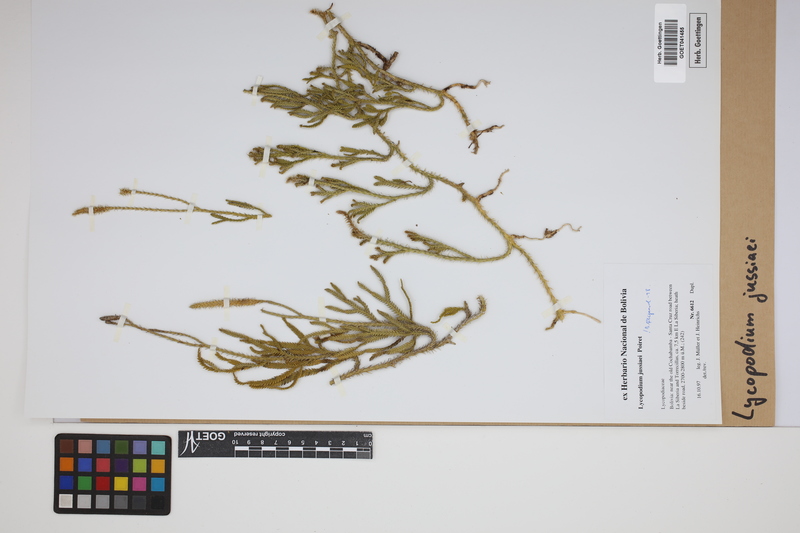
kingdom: Plantae
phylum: Tracheophyta
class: Lycopodiopsida
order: Lycopodiales
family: Lycopodiaceae
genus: Diphasium
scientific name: Diphasium jussiaei
